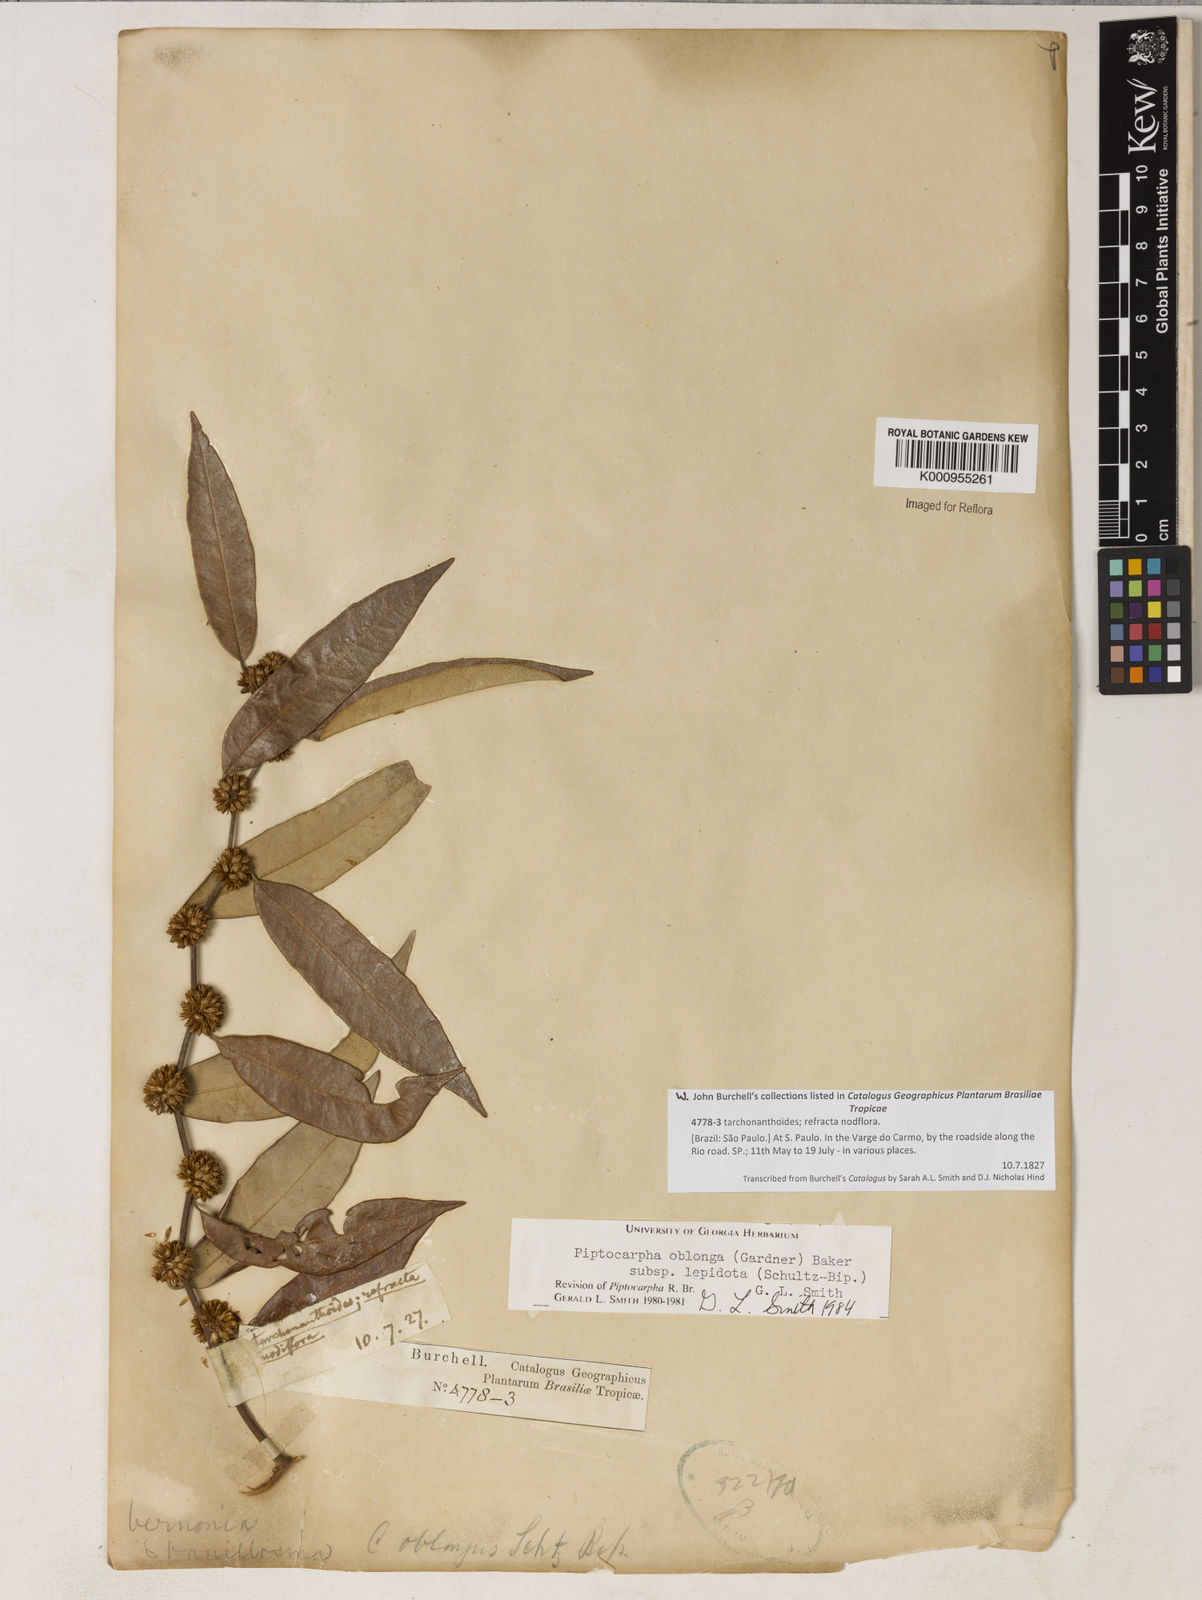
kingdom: Plantae
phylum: Tracheophyta
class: Magnoliopsida
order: Asterales
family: Asteraceae
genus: Piptocarpha
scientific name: Piptocarpha oblonga
